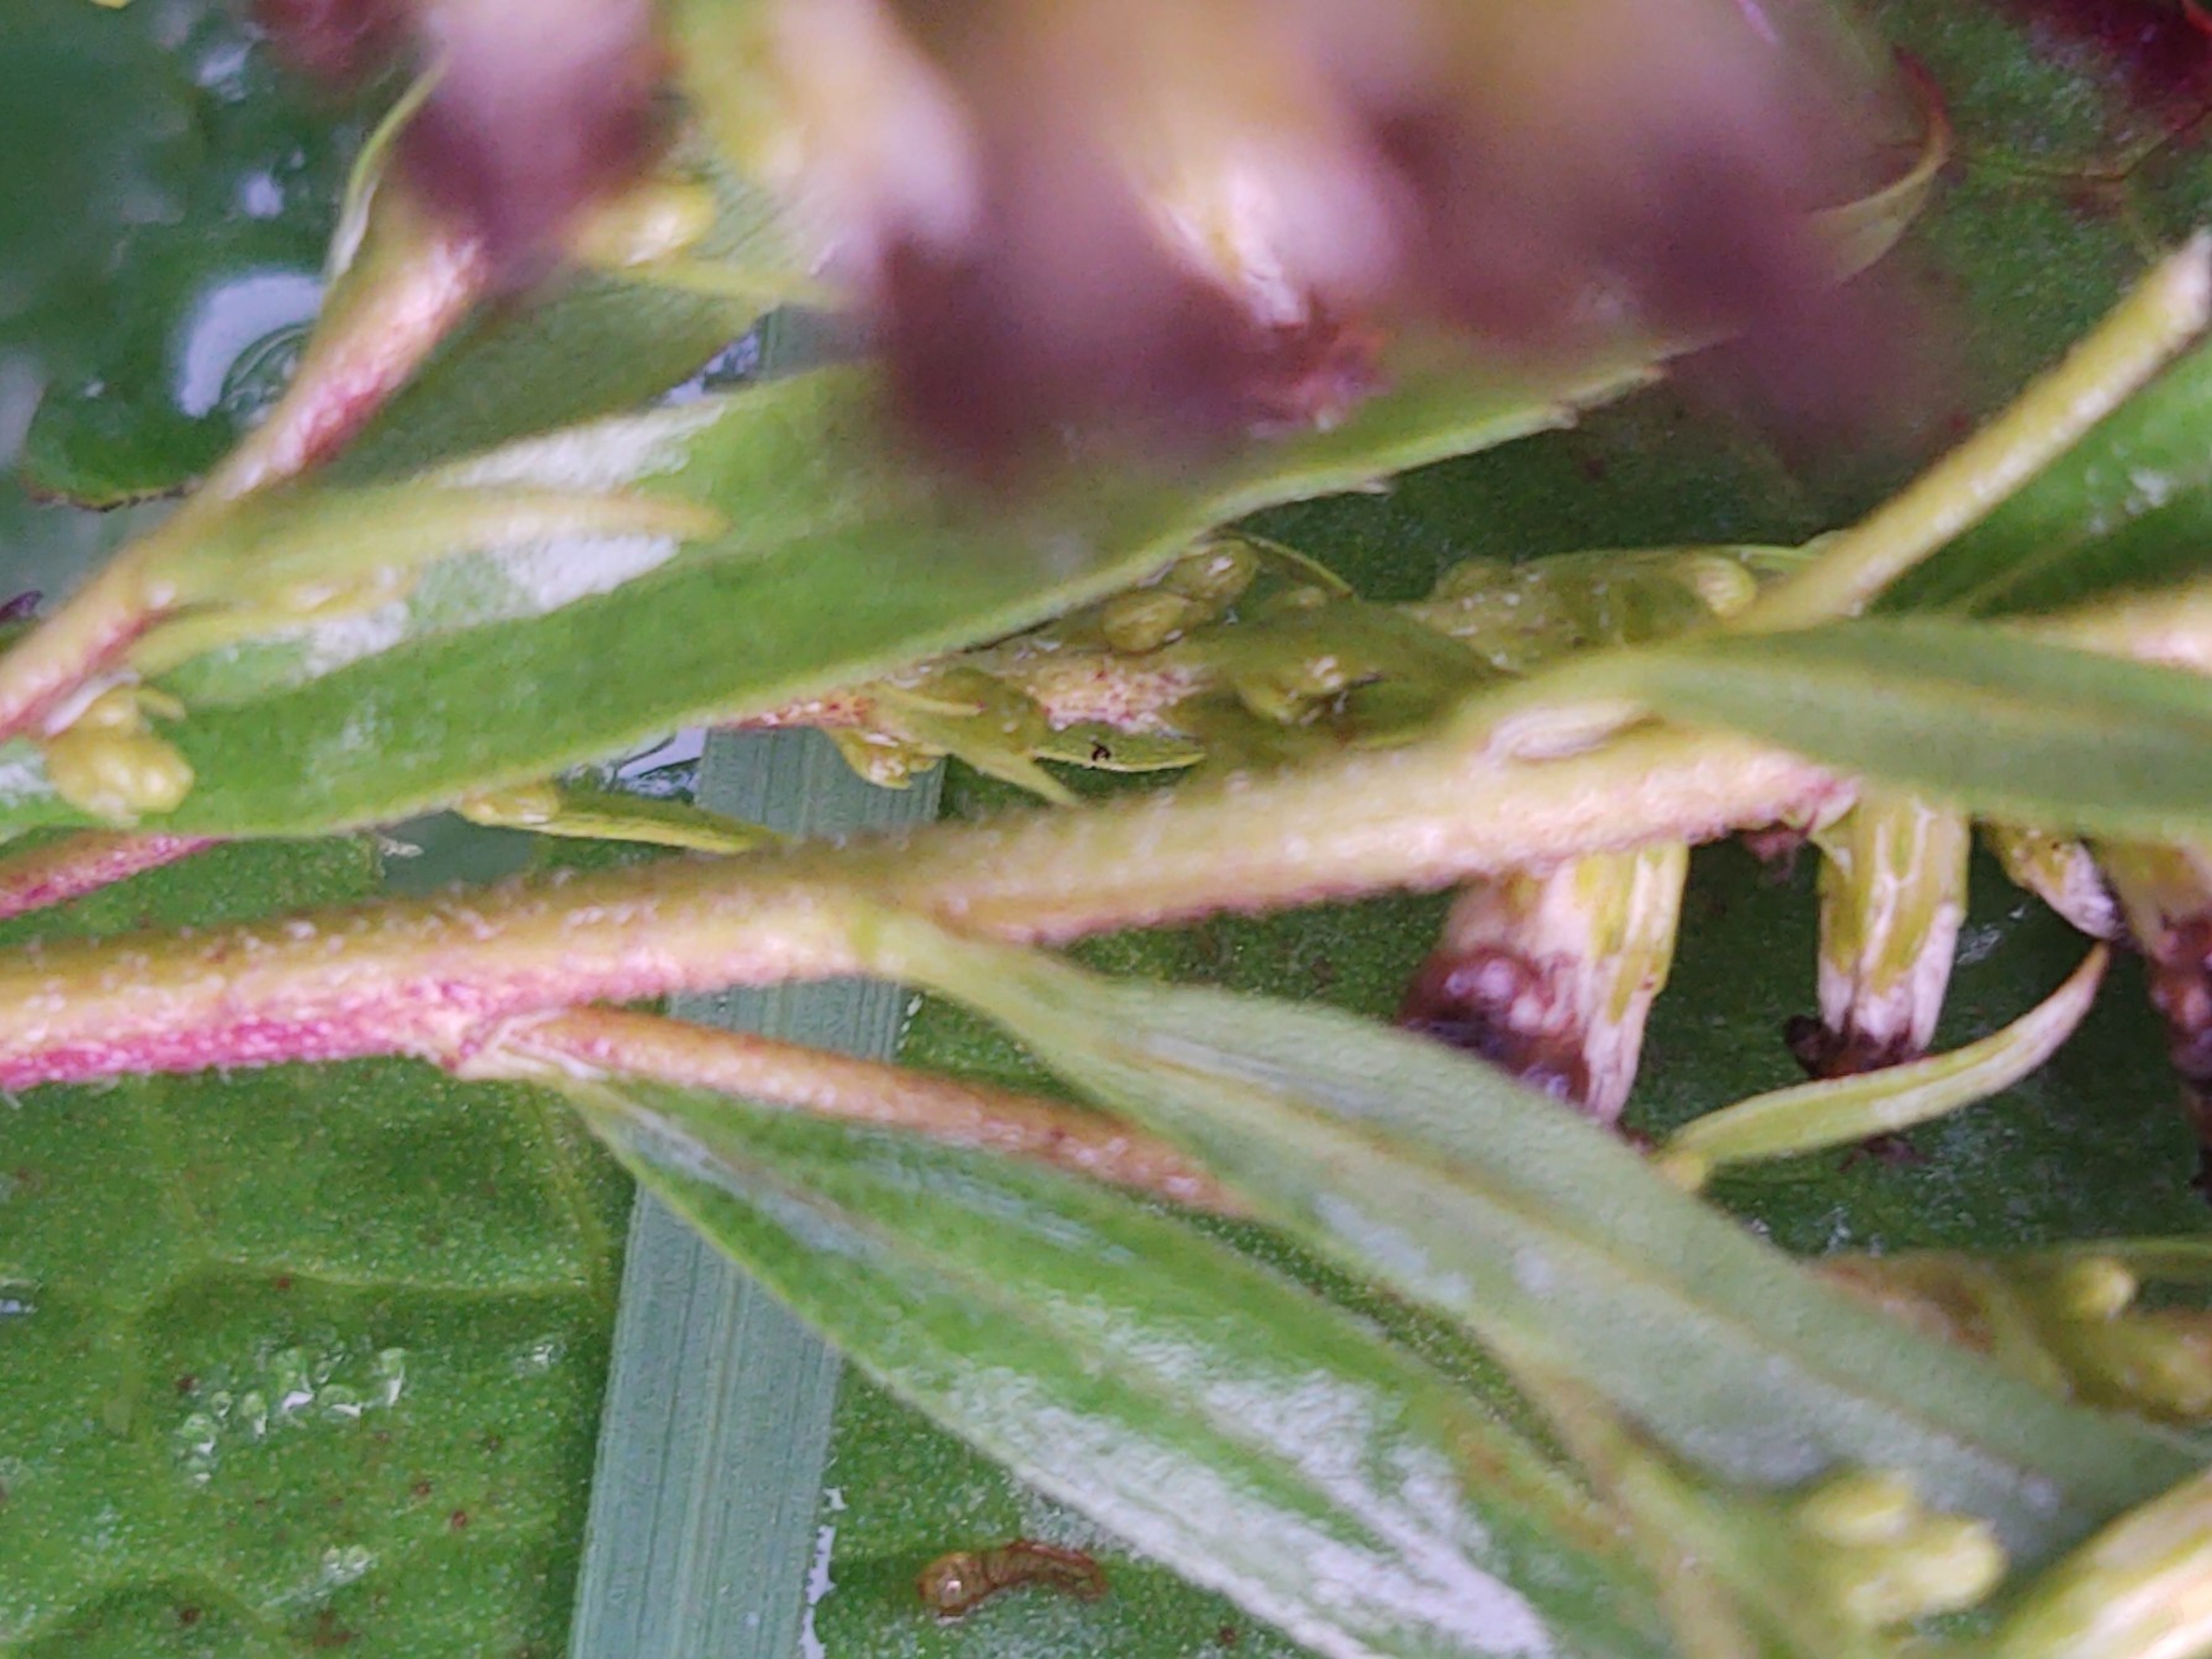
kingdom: Plantae
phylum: Tracheophyta
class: Magnoliopsida
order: Asterales
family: Asteraceae
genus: Solidago
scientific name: Solidago canadensis
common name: Kanadisk gyldenris
